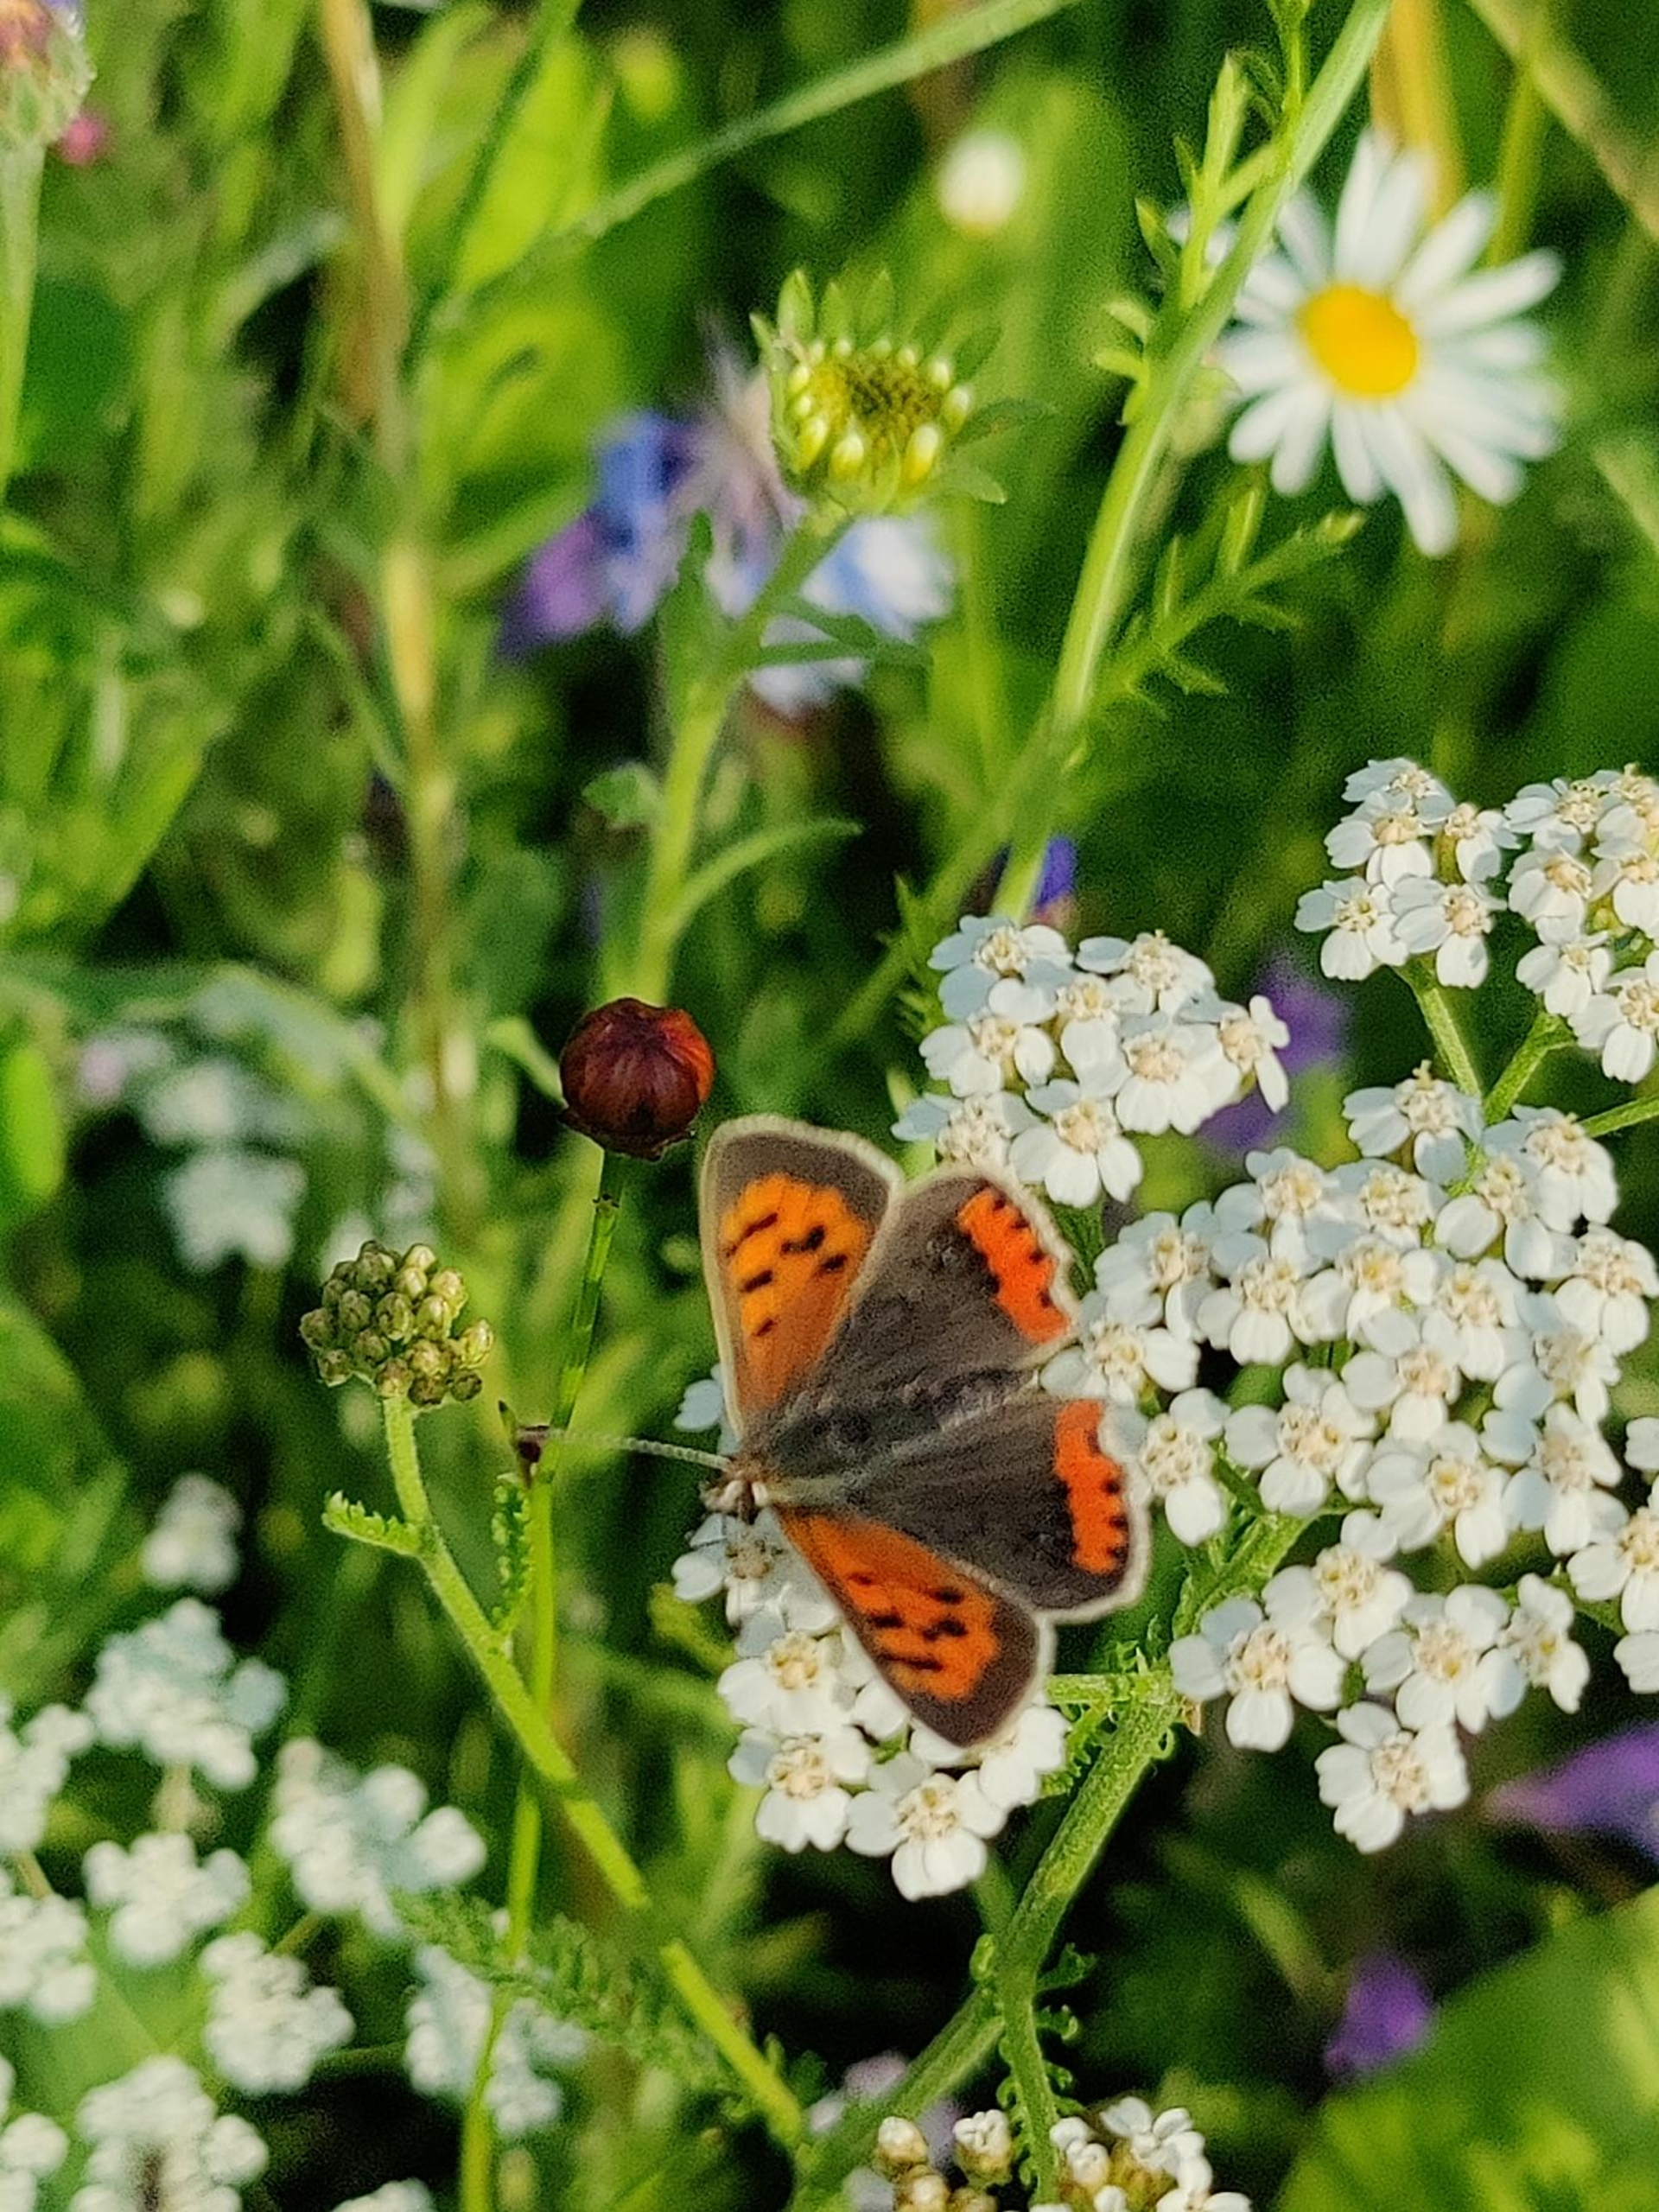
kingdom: Animalia
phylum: Arthropoda
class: Insecta
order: Lepidoptera
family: Lycaenidae
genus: Lycaena
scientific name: Lycaena phlaeas
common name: Lille ildfugl
